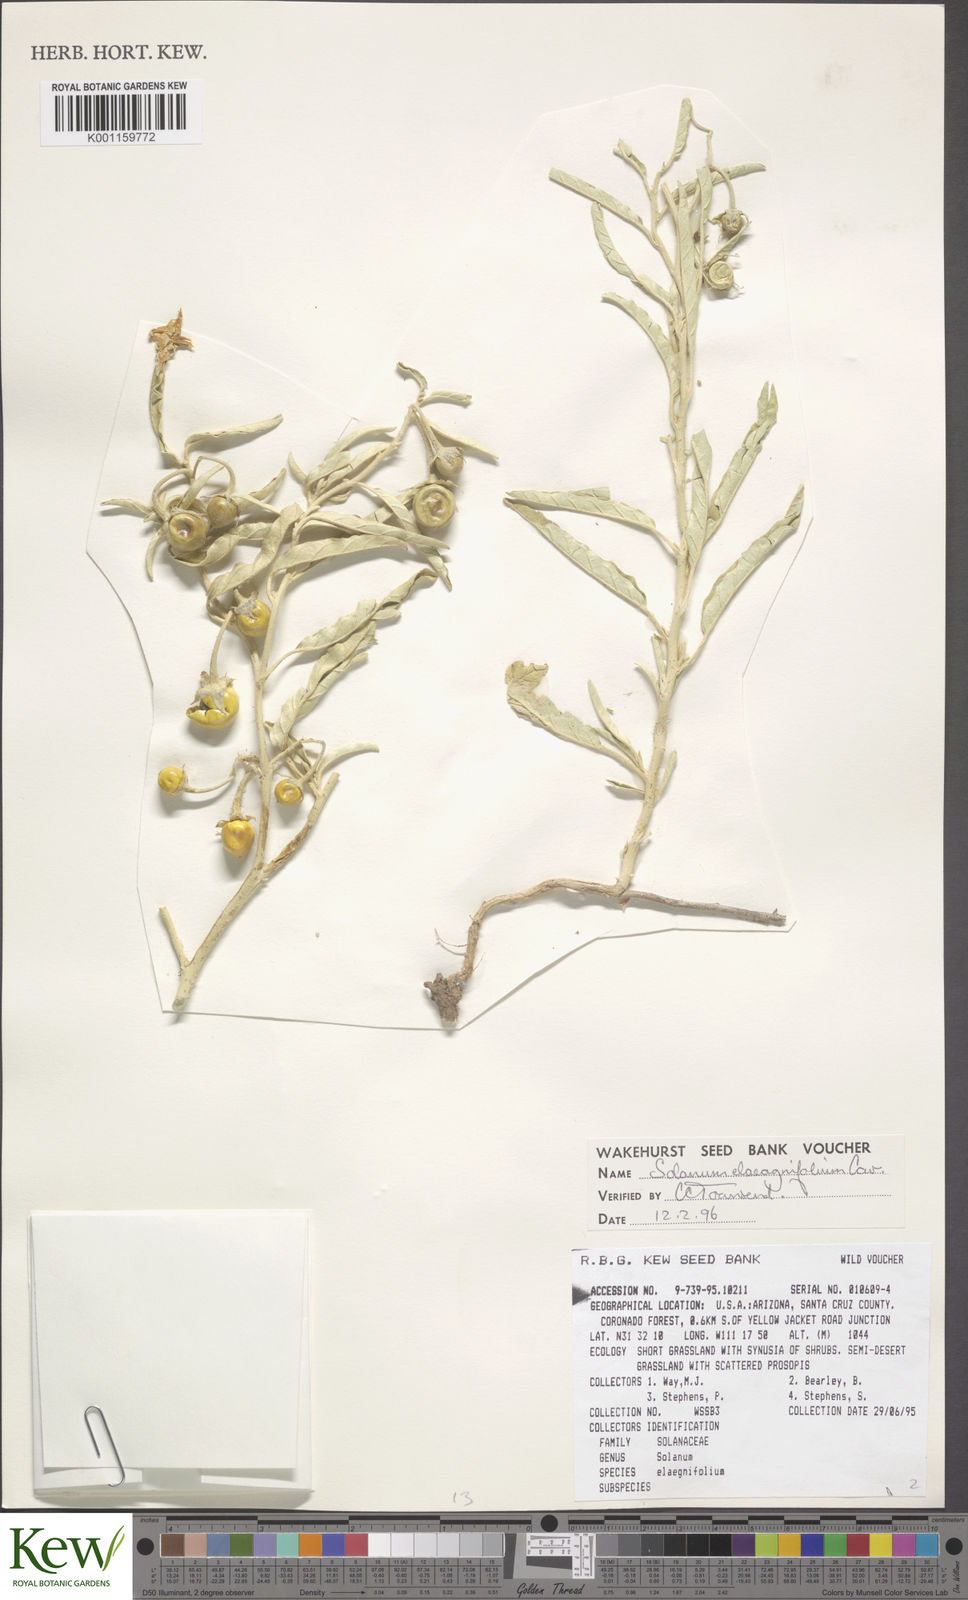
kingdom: Plantae
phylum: Tracheophyta
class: Magnoliopsida
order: Solanales
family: Solanaceae
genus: Solanum
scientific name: Solanum
